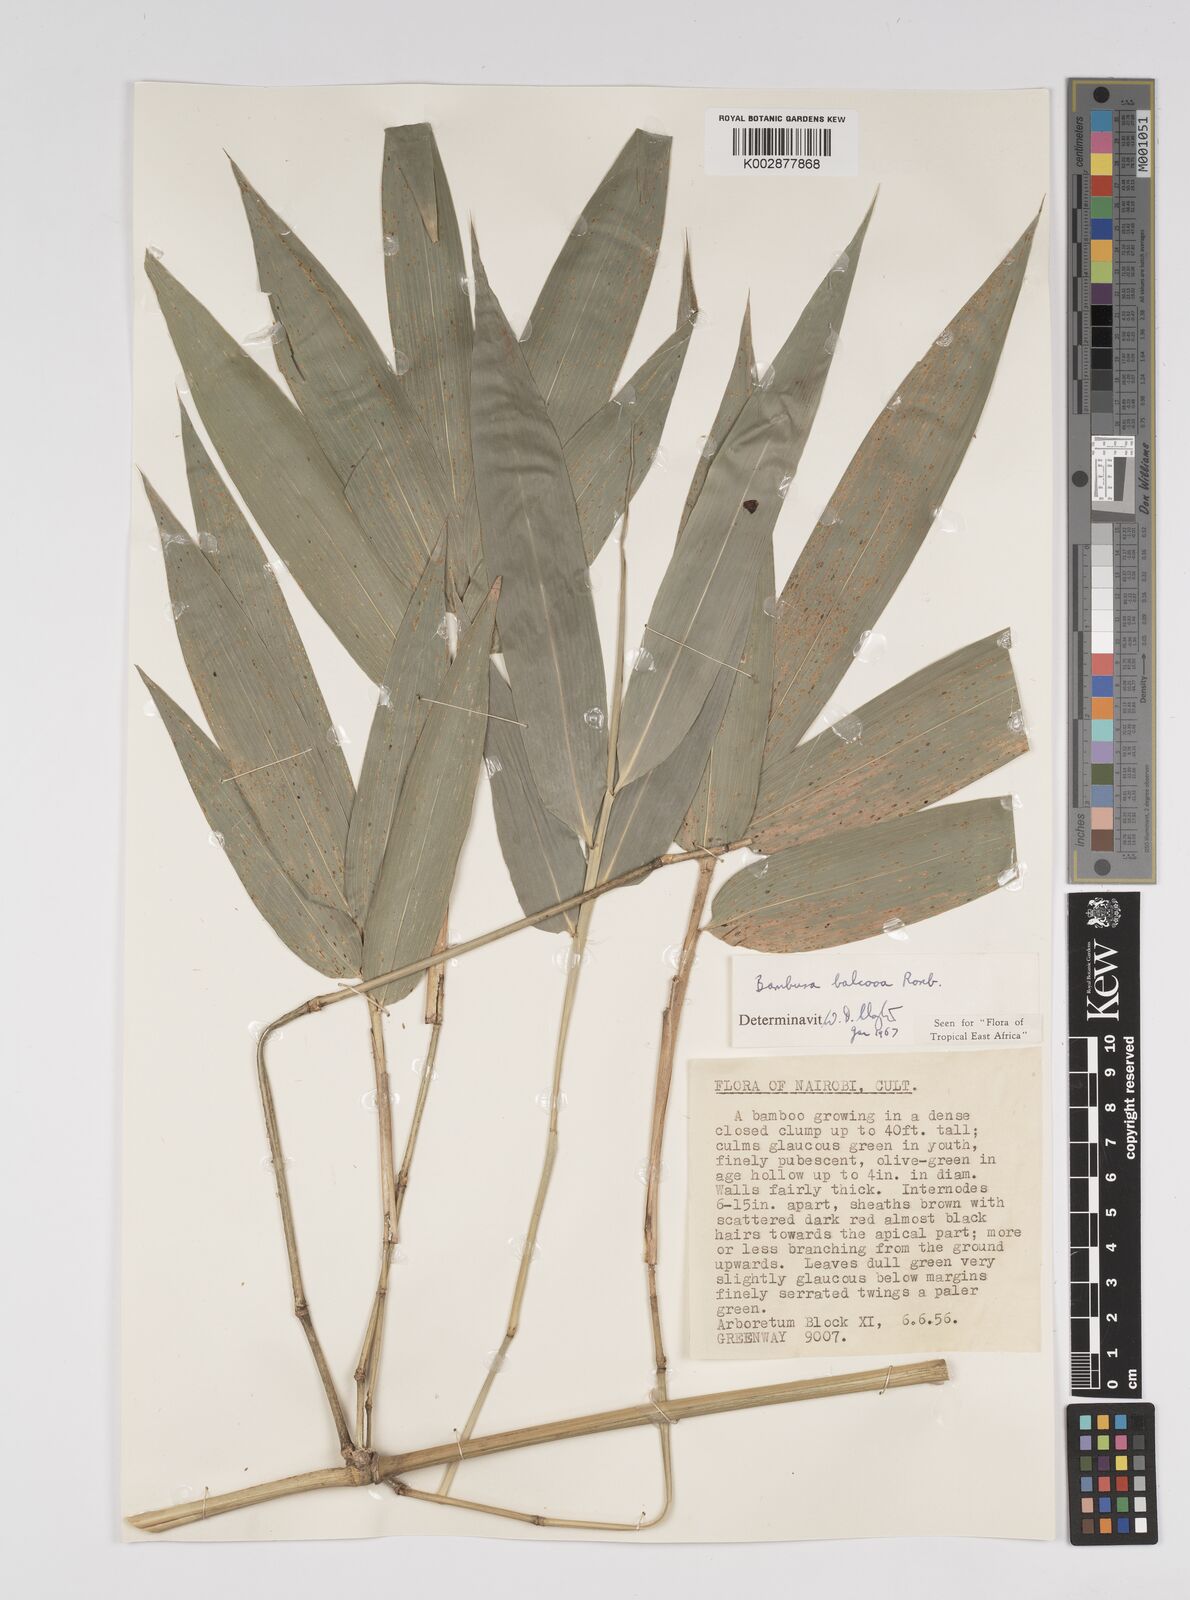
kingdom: Plantae
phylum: Tracheophyta
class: Liliopsida
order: Poales
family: Poaceae
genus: Bambusa
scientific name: Bambusa balcooa
